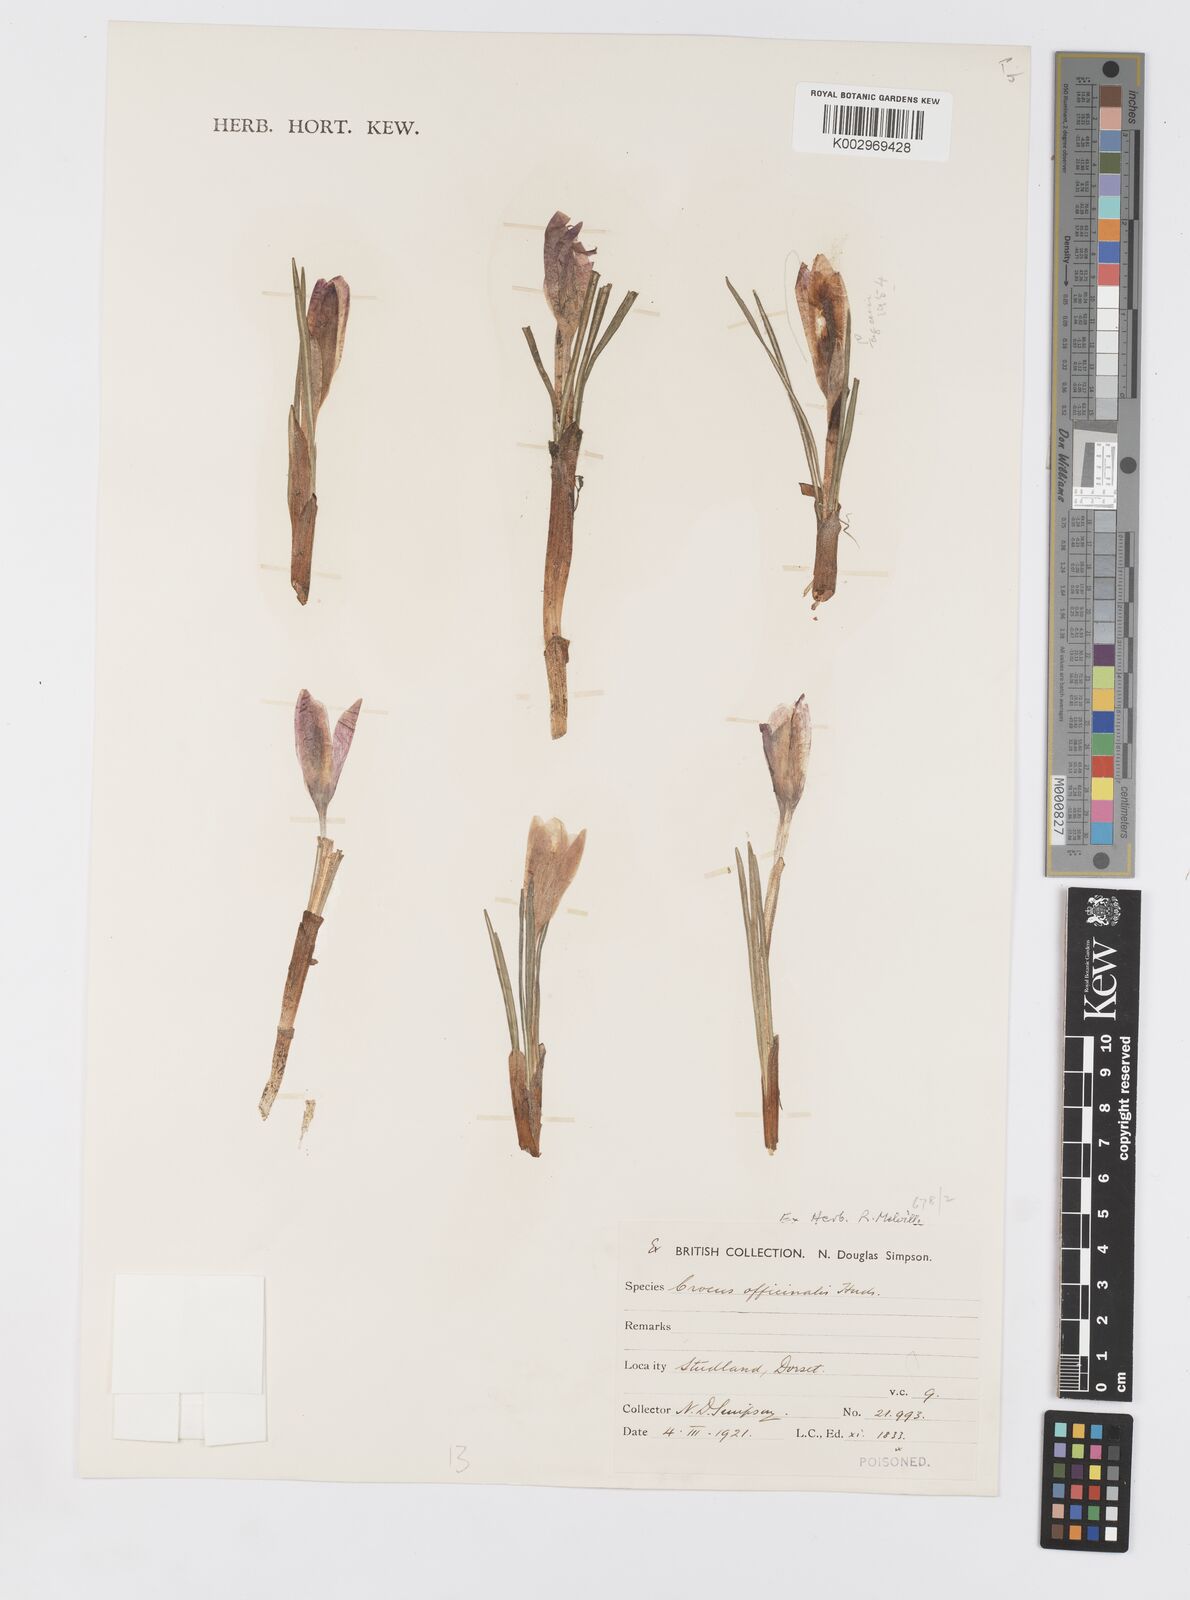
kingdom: Plantae
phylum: Tracheophyta
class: Liliopsida
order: Asparagales
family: Iridaceae
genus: Crocus
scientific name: Crocus sativus
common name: Saffron crocus
